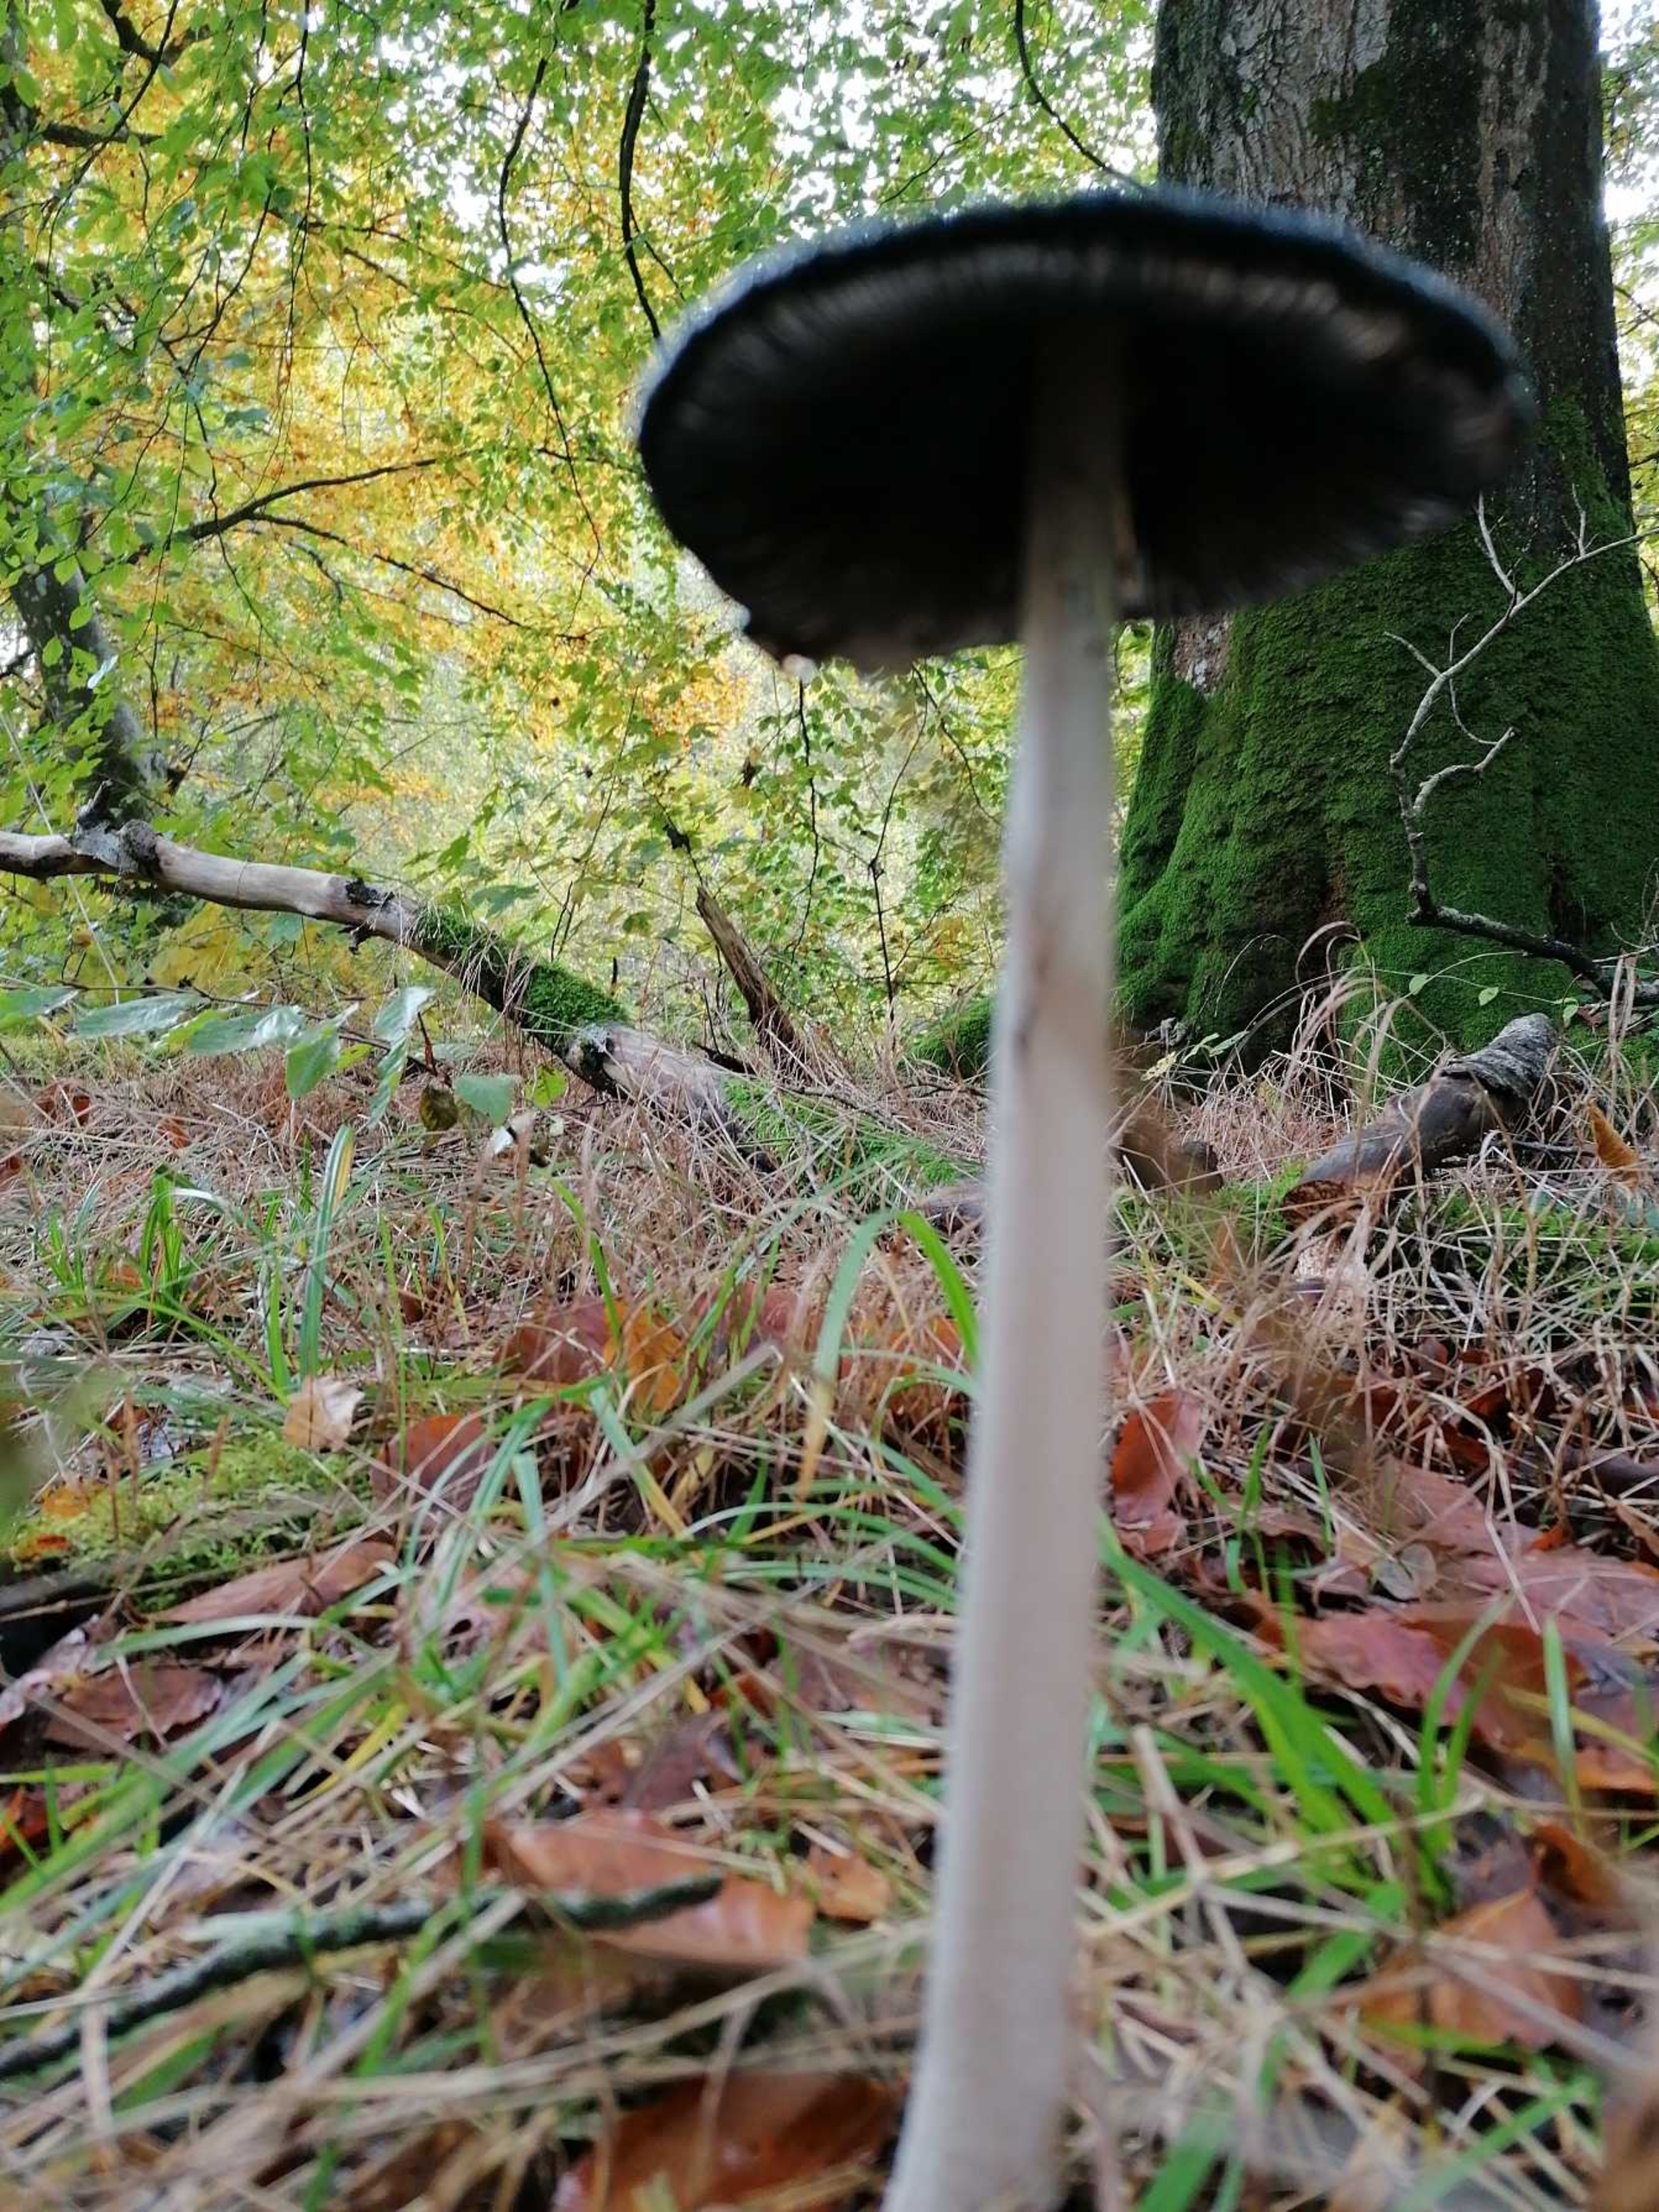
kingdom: Fungi
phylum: Basidiomycota
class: Agaricomycetes
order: Agaricales
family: Psathyrellaceae
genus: Coprinopsis
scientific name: Coprinopsis picacea
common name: Skade-blækhat
